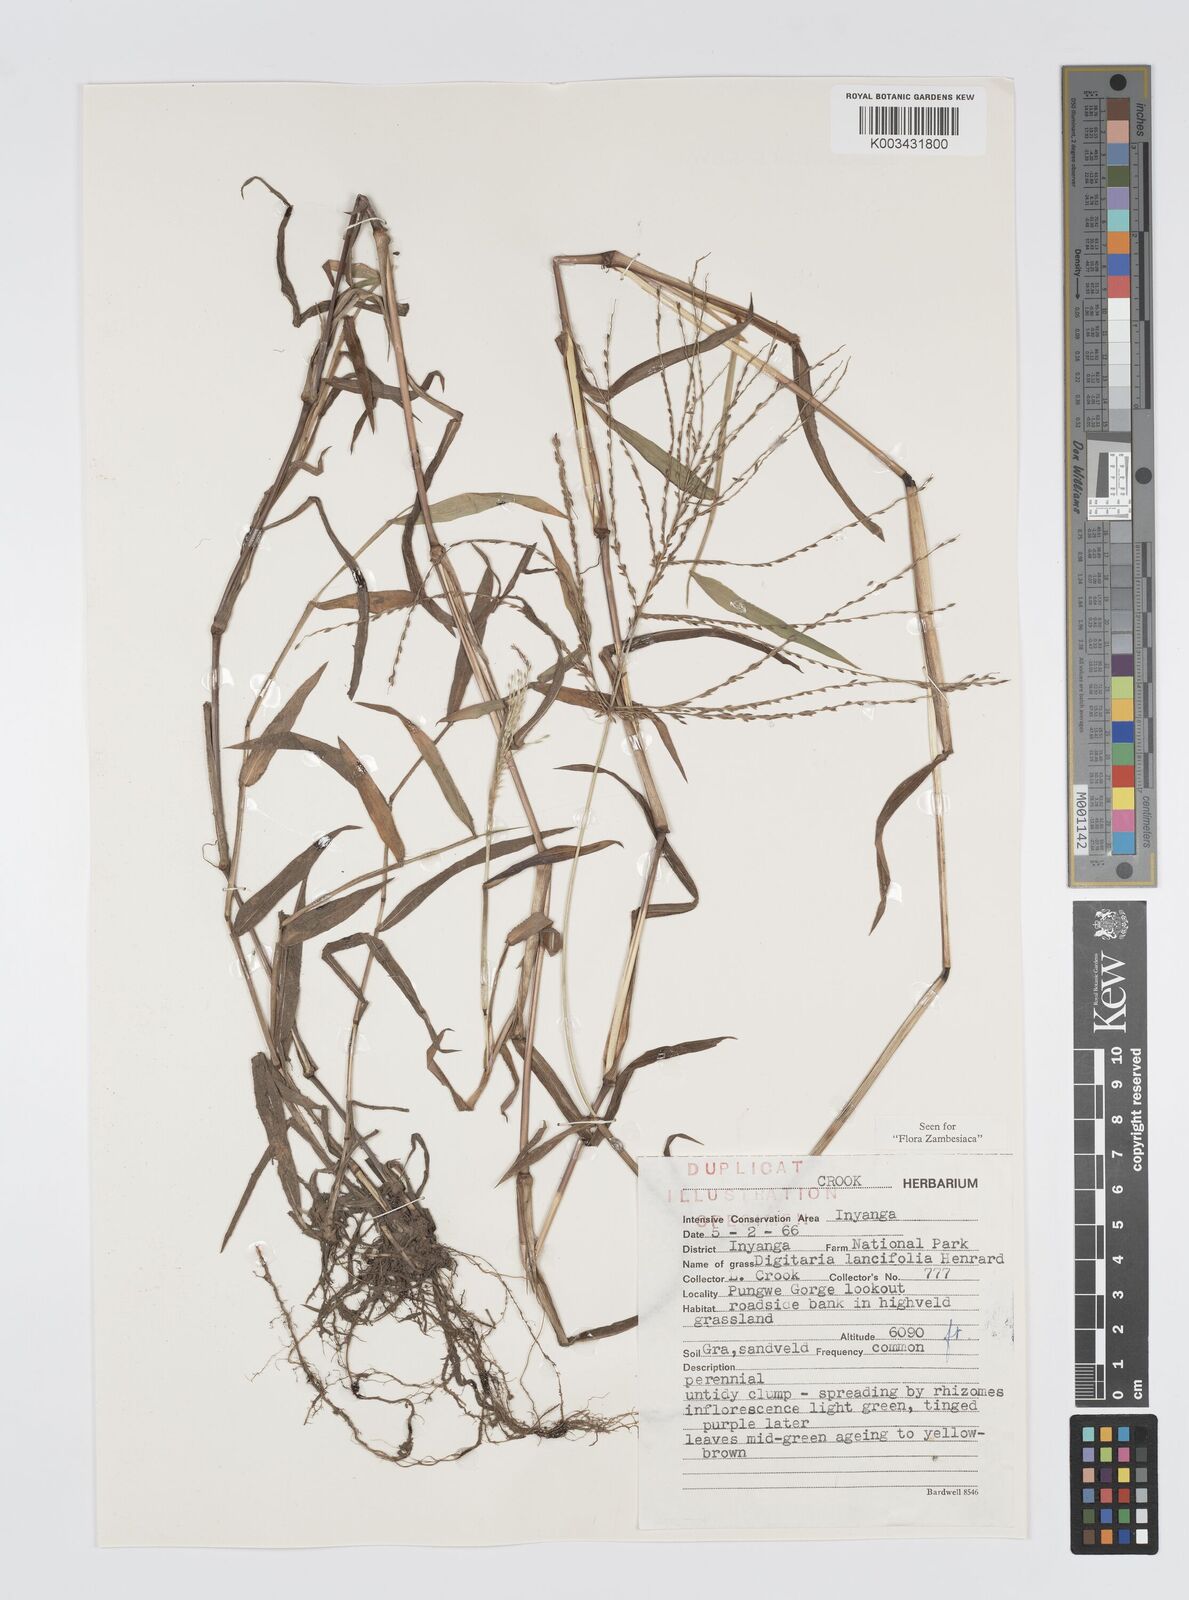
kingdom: Plantae
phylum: Tracheophyta
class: Liliopsida
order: Poales
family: Poaceae
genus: Digitaria
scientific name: Digitaria pearsonii
